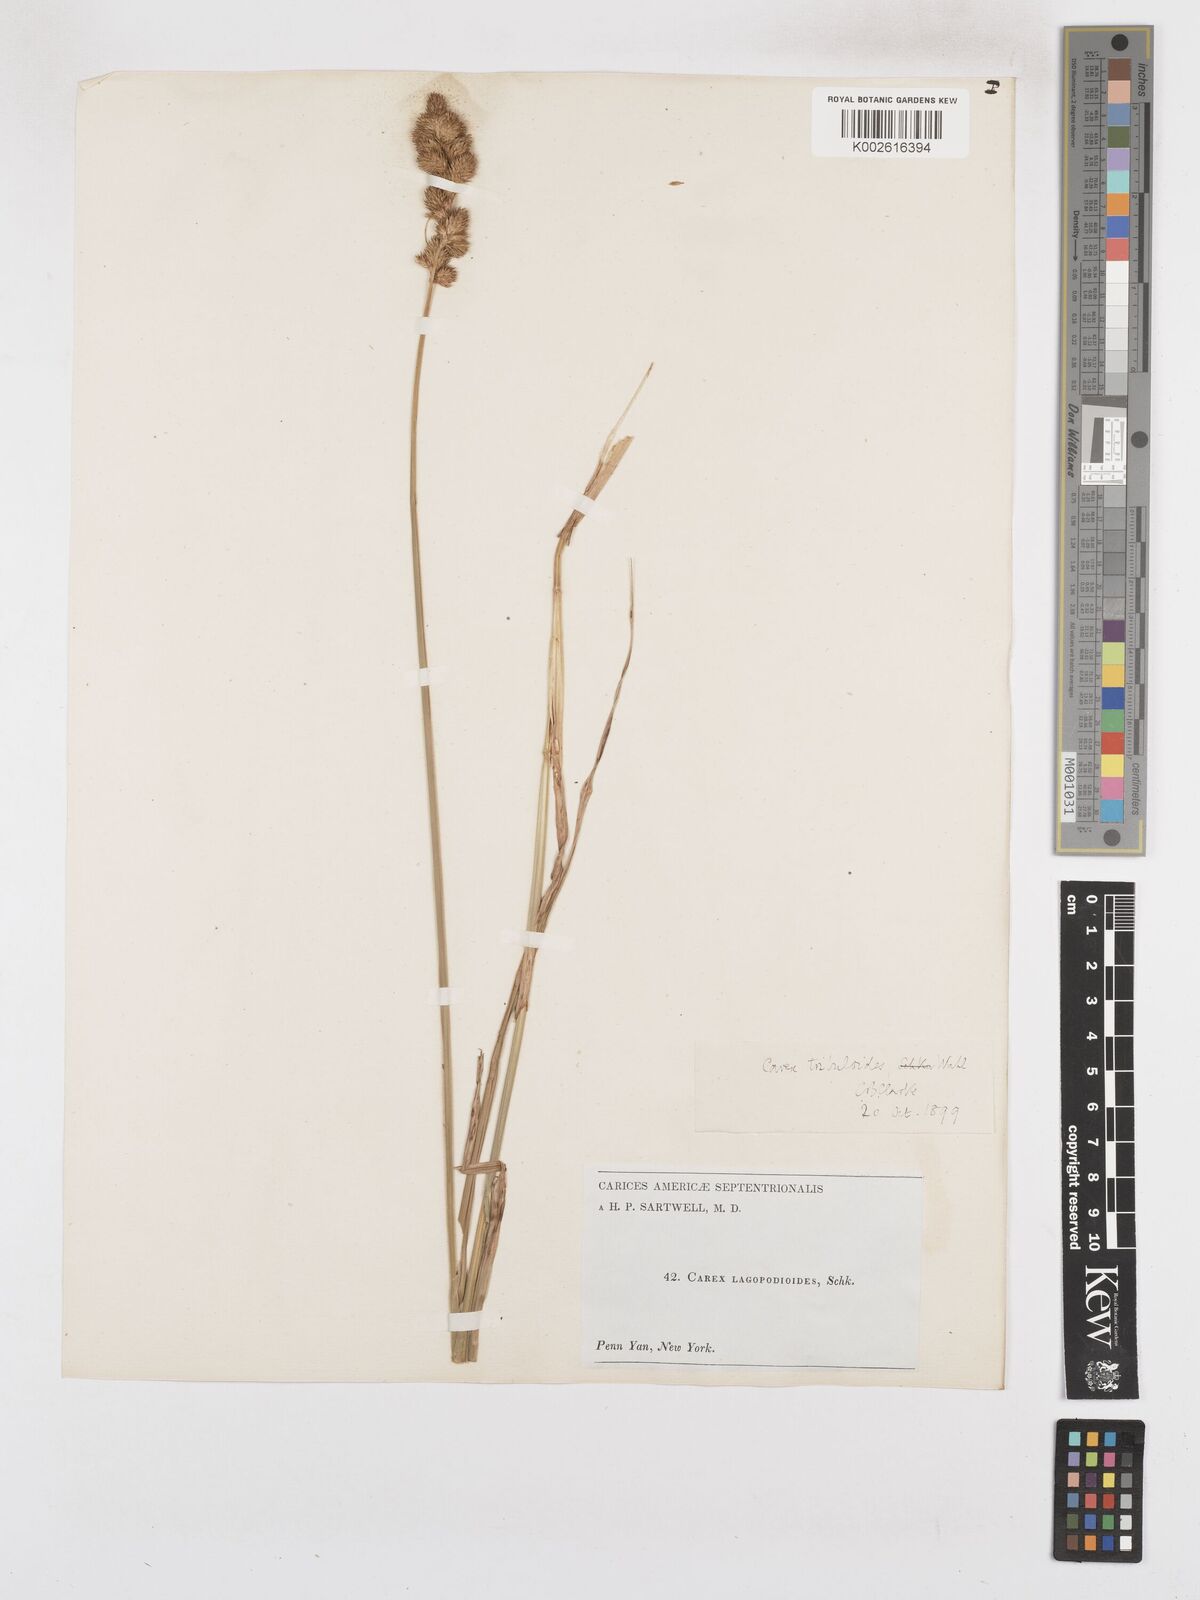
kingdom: Plantae
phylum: Tracheophyta
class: Liliopsida
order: Poales
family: Cyperaceae
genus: Carex
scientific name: Carex tribuloides
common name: Blunt broom sedge
